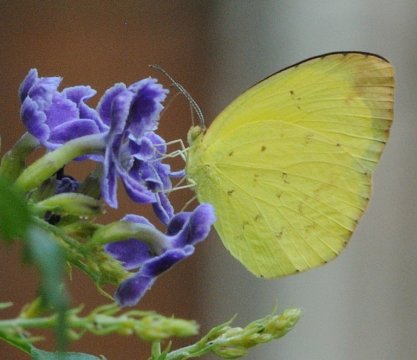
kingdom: Animalia
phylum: Arthropoda
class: Insecta
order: Lepidoptera
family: Pieridae
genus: Eurema
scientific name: Eurema hecabe
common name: Common Grass Yellow
